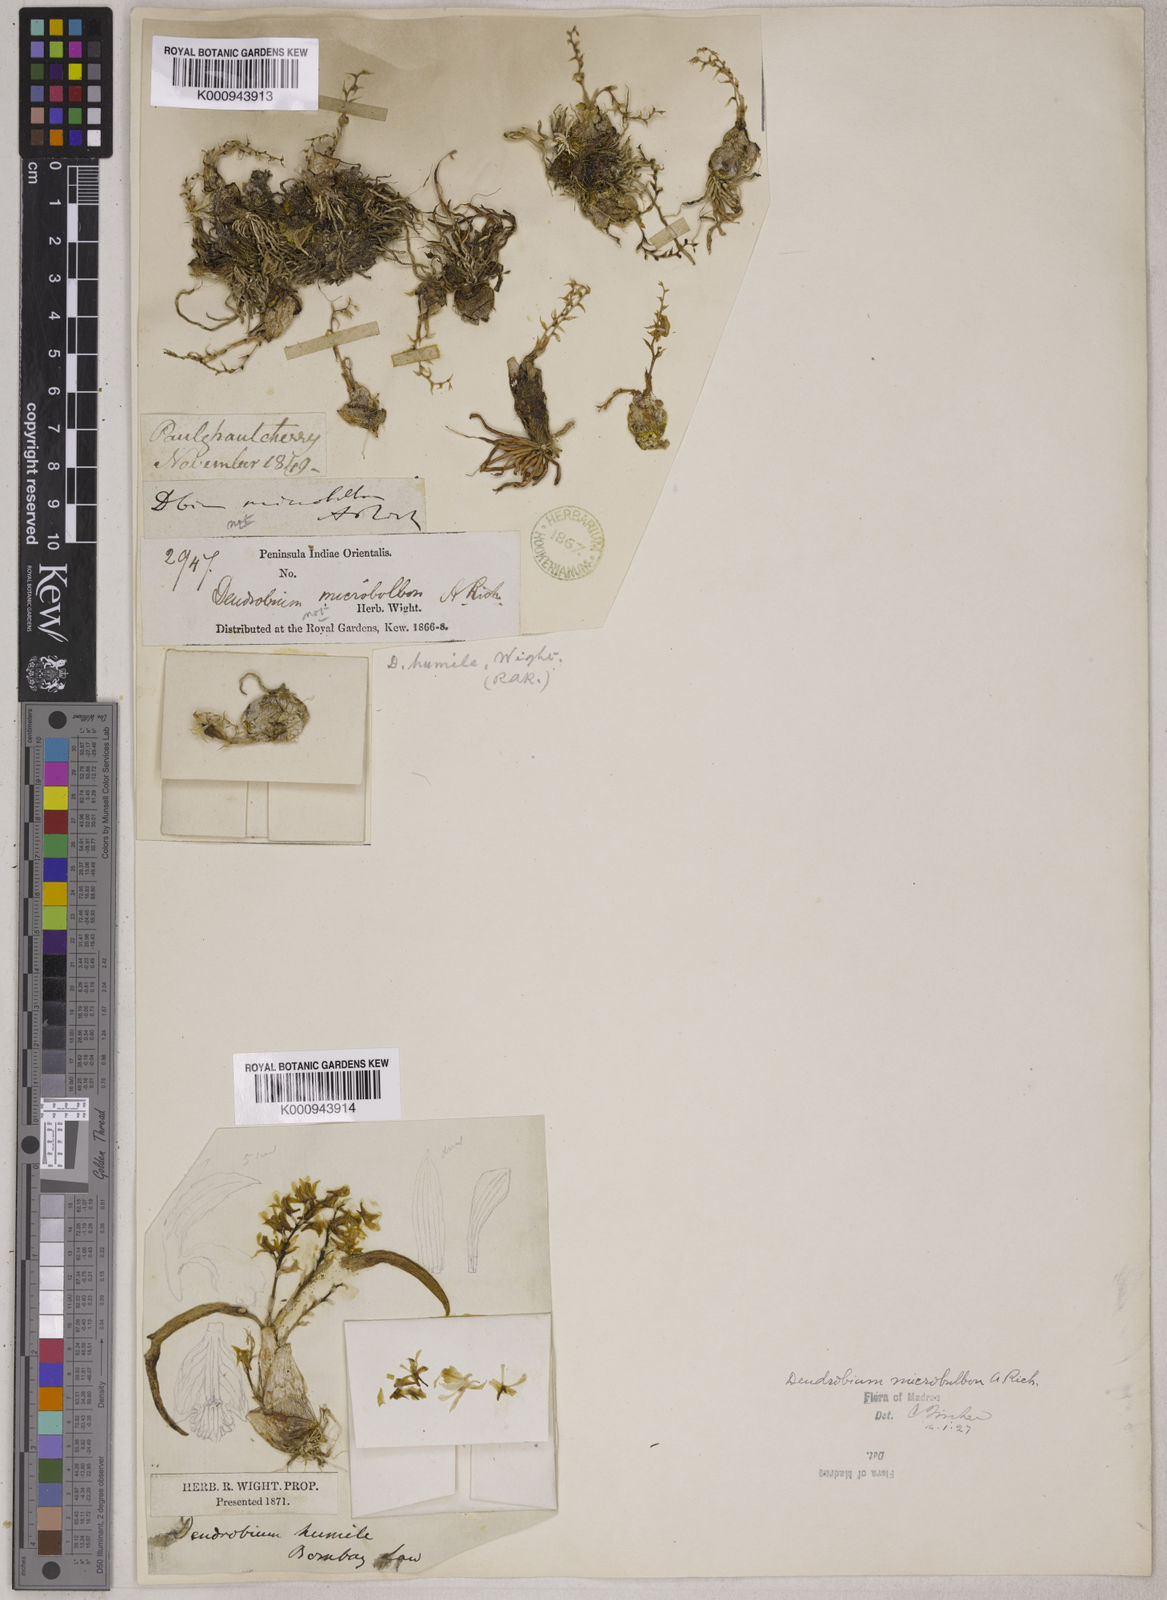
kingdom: Plantae
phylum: Tracheophyta
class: Liliopsida
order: Asparagales
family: Orchidaceae
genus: Dendrobium
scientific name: Dendrobium microbulbon
